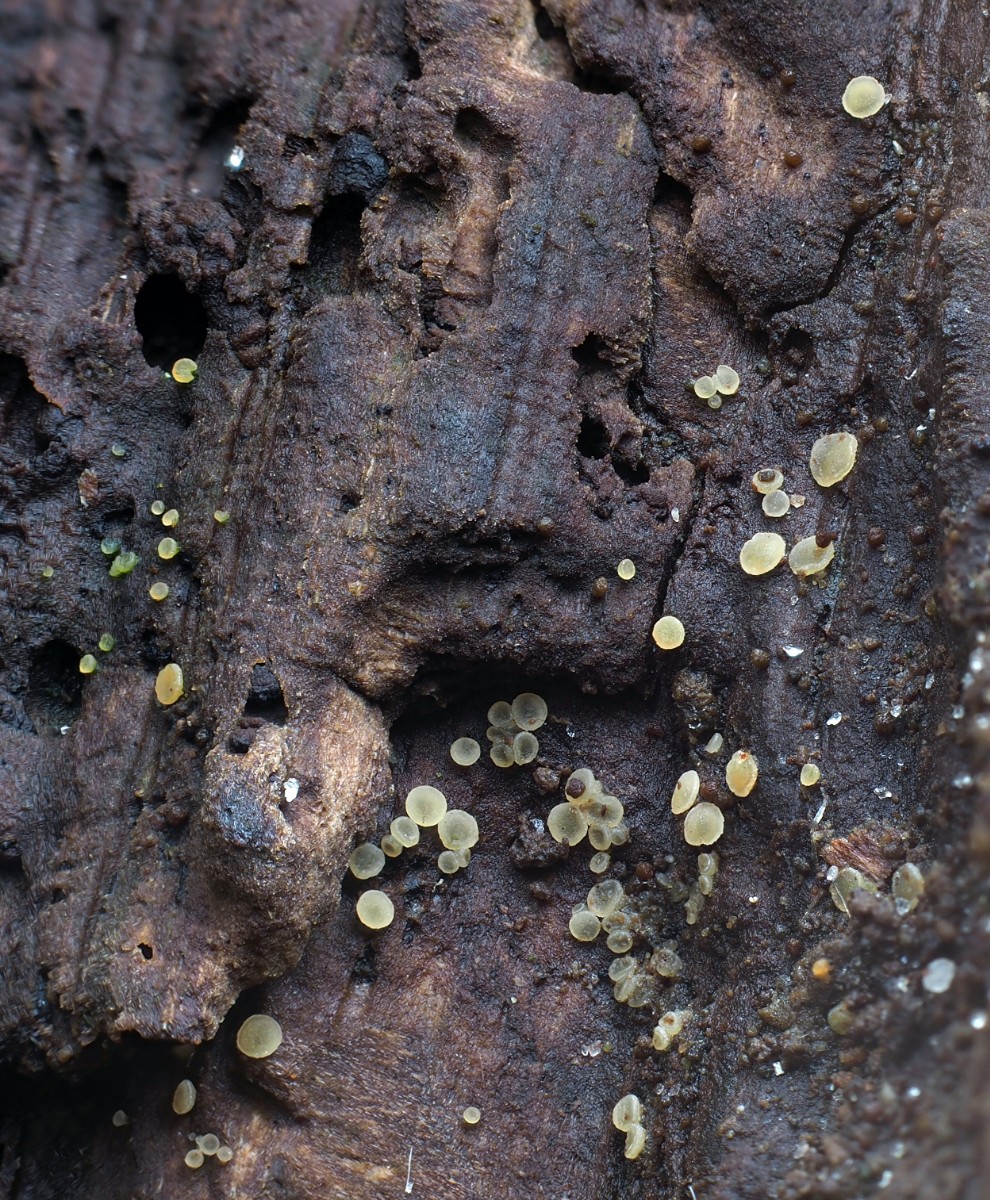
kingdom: Fungi
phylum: Ascomycota
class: Leotiomycetes
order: Helotiales
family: Hyaloscyphaceae
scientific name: Hyaloscyphaceae
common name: frynseskivefamilien
